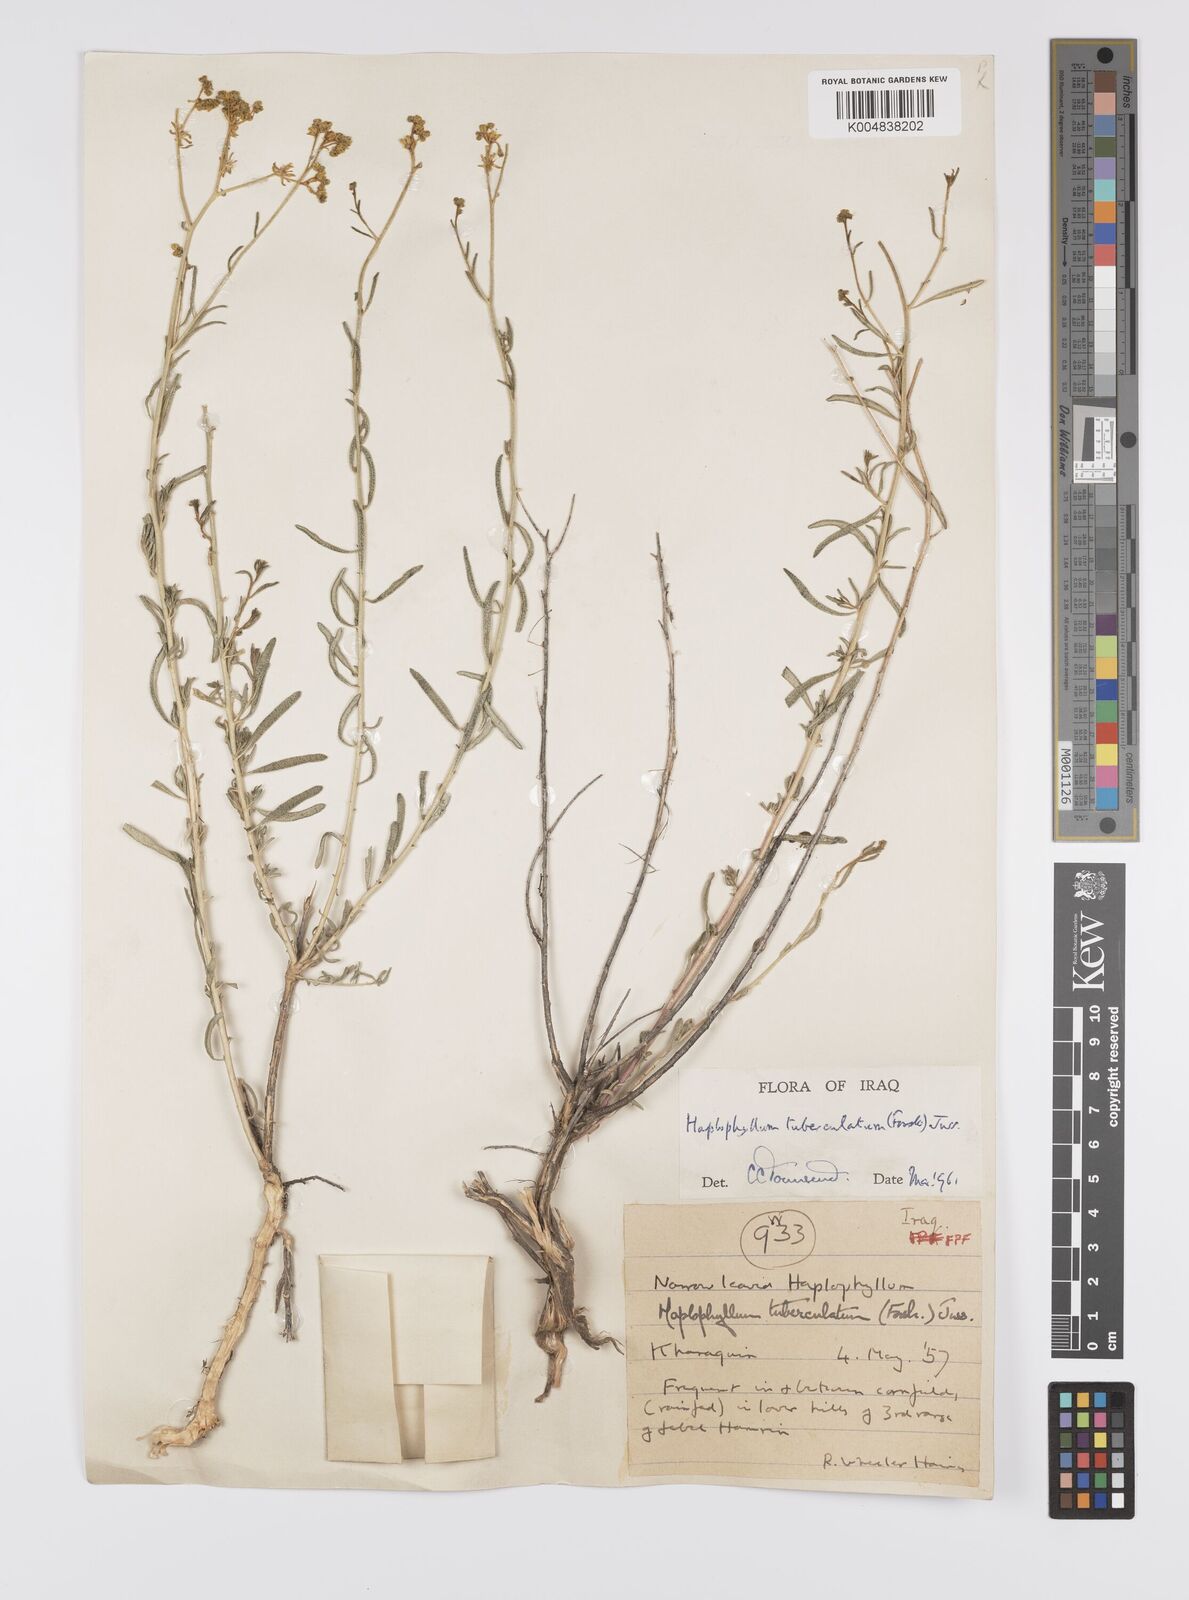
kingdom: Plantae
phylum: Tracheophyta
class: Magnoliopsida
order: Sapindales
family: Rutaceae
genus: Haplophyllum
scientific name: Haplophyllum tuberculatum
